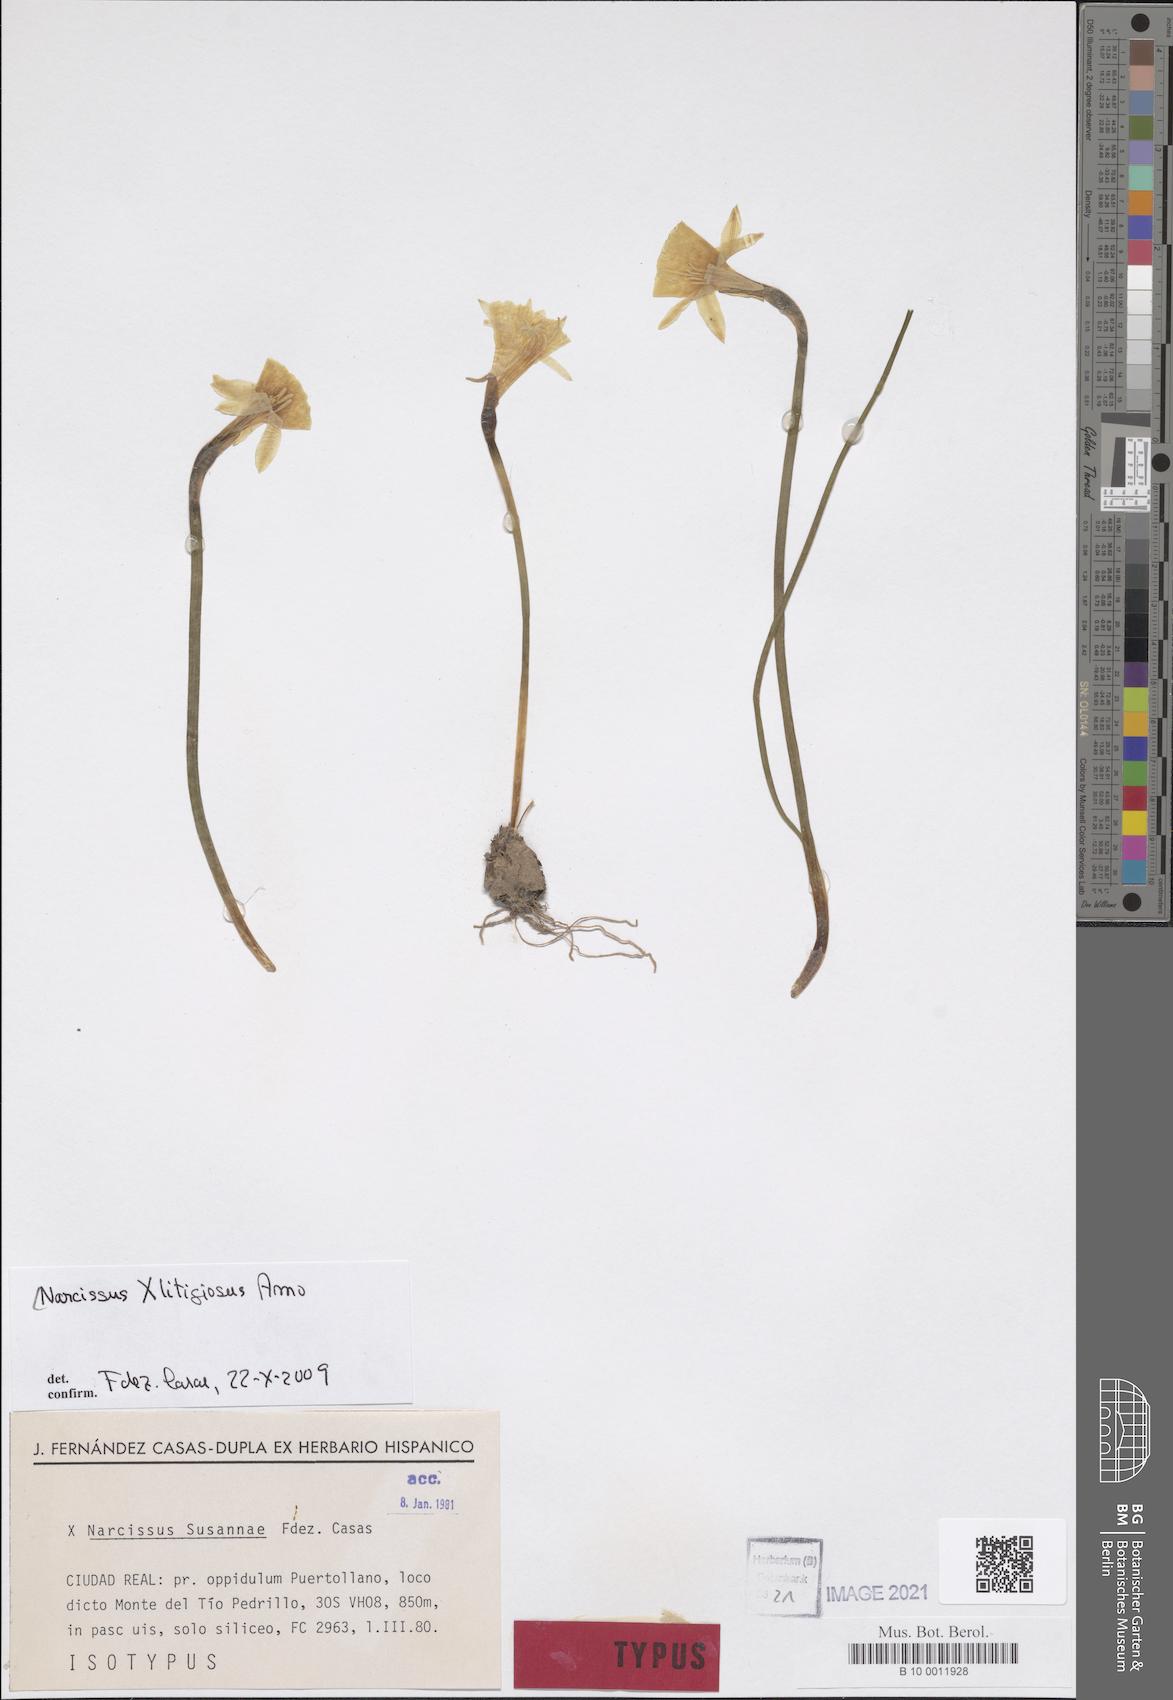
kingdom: Plantae
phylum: Tracheophyta
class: Liliopsida
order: Asparagales
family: Amaryllidaceae
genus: Narcissus
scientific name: Narcissus litigiosus
